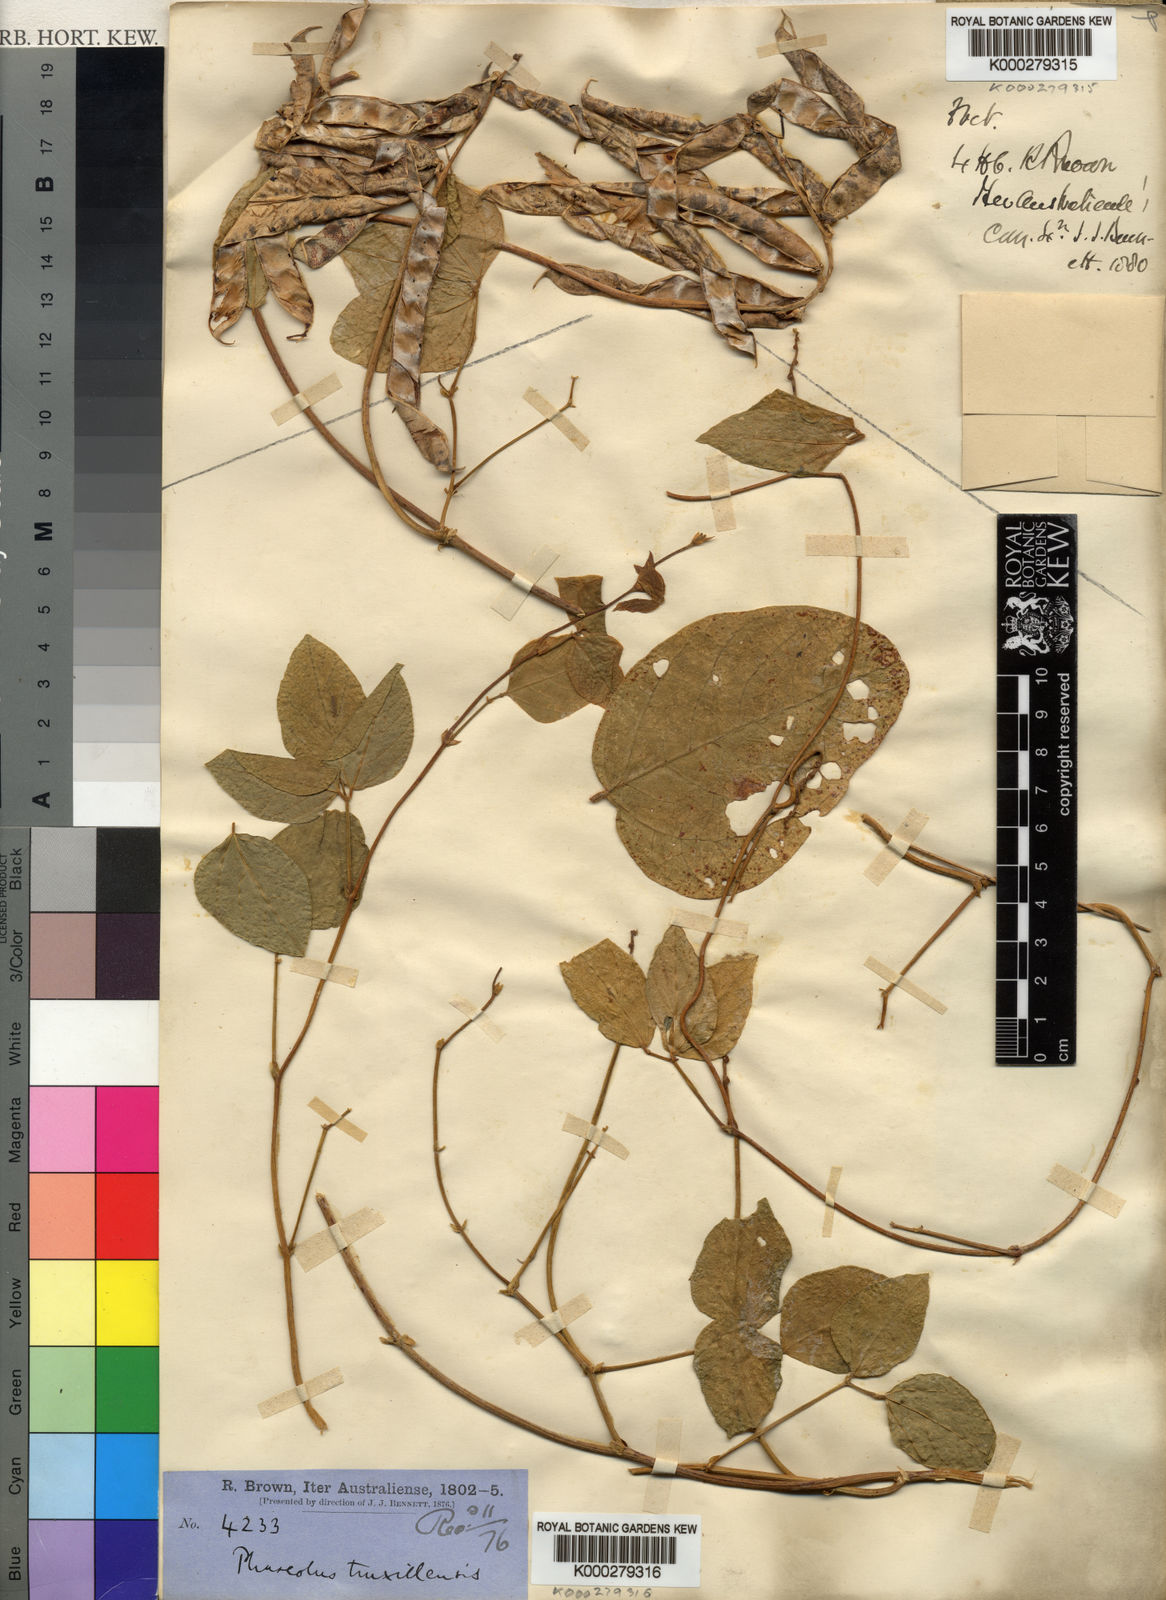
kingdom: Plantae
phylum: Tracheophyta
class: Magnoliopsida
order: Fabales
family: Fabaceae
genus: Vigna
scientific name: Vigna truxillensis
